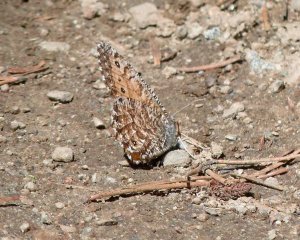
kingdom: Animalia
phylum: Arthropoda
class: Insecta
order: Lepidoptera
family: Nymphalidae
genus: Oeneis
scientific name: Oeneis chryxus
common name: Chryxus Arctic
